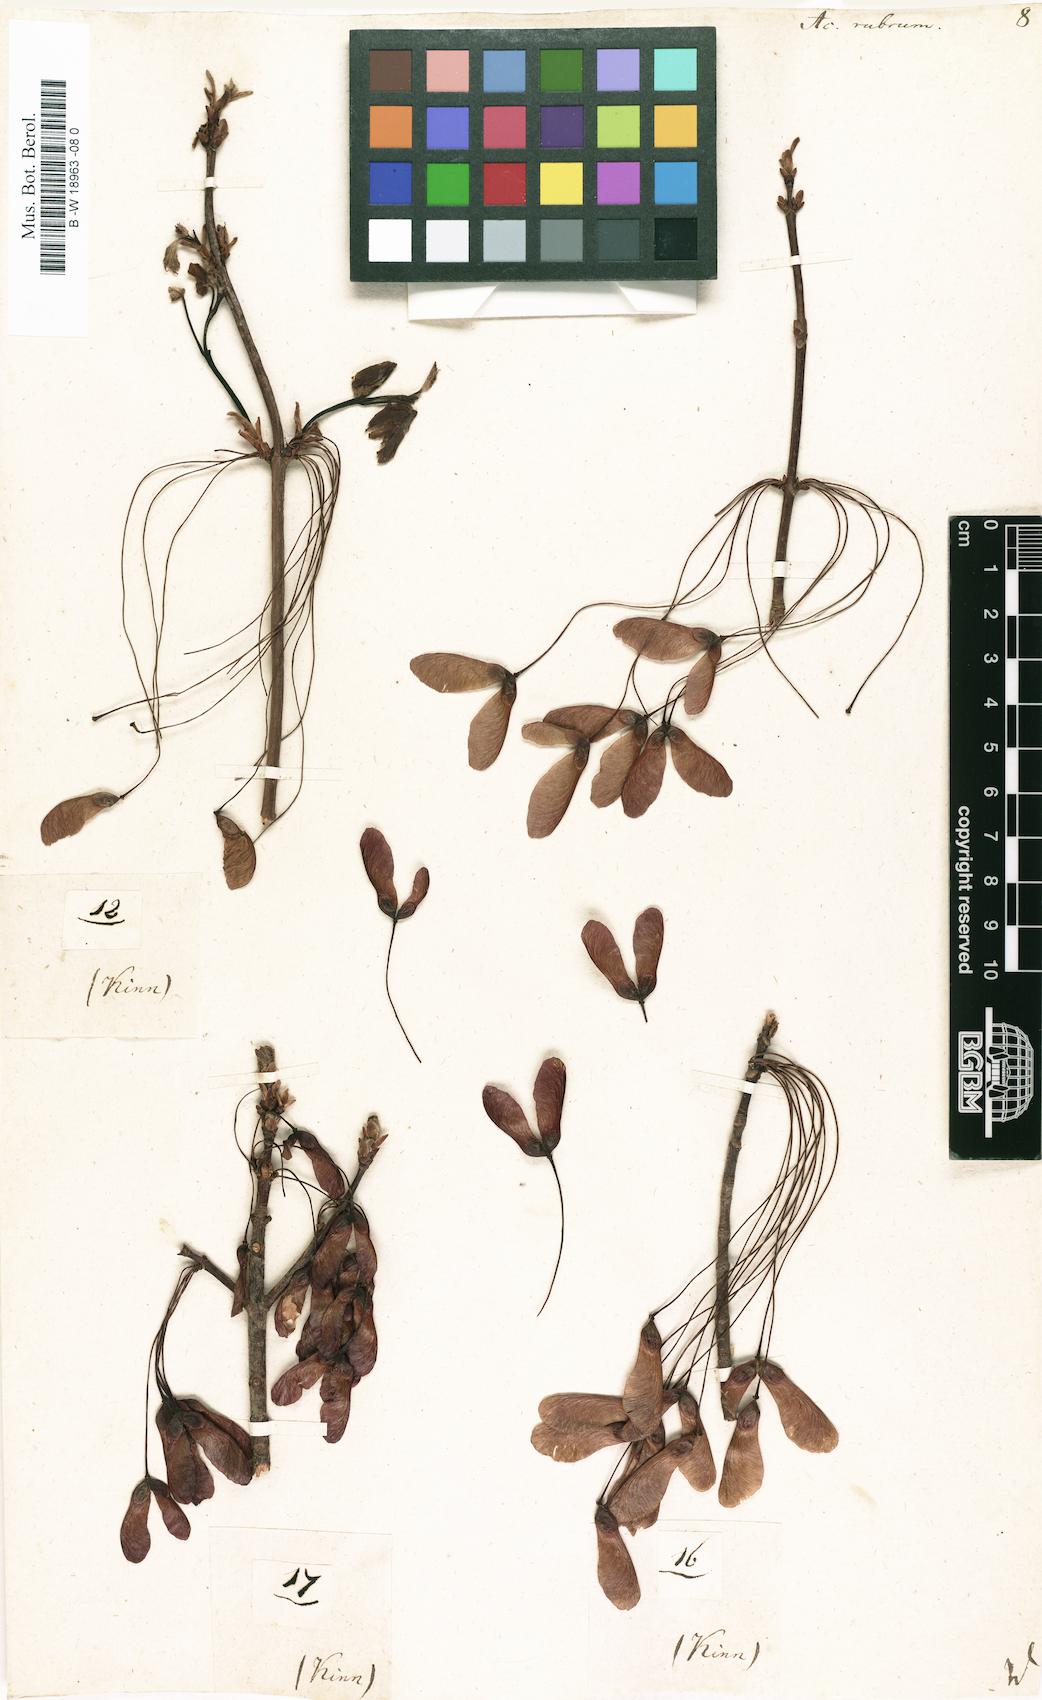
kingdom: Plantae
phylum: Tracheophyta
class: Magnoliopsida
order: Sapindales
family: Sapindaceae
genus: Acer
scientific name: Acer rubrum
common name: Red maple
